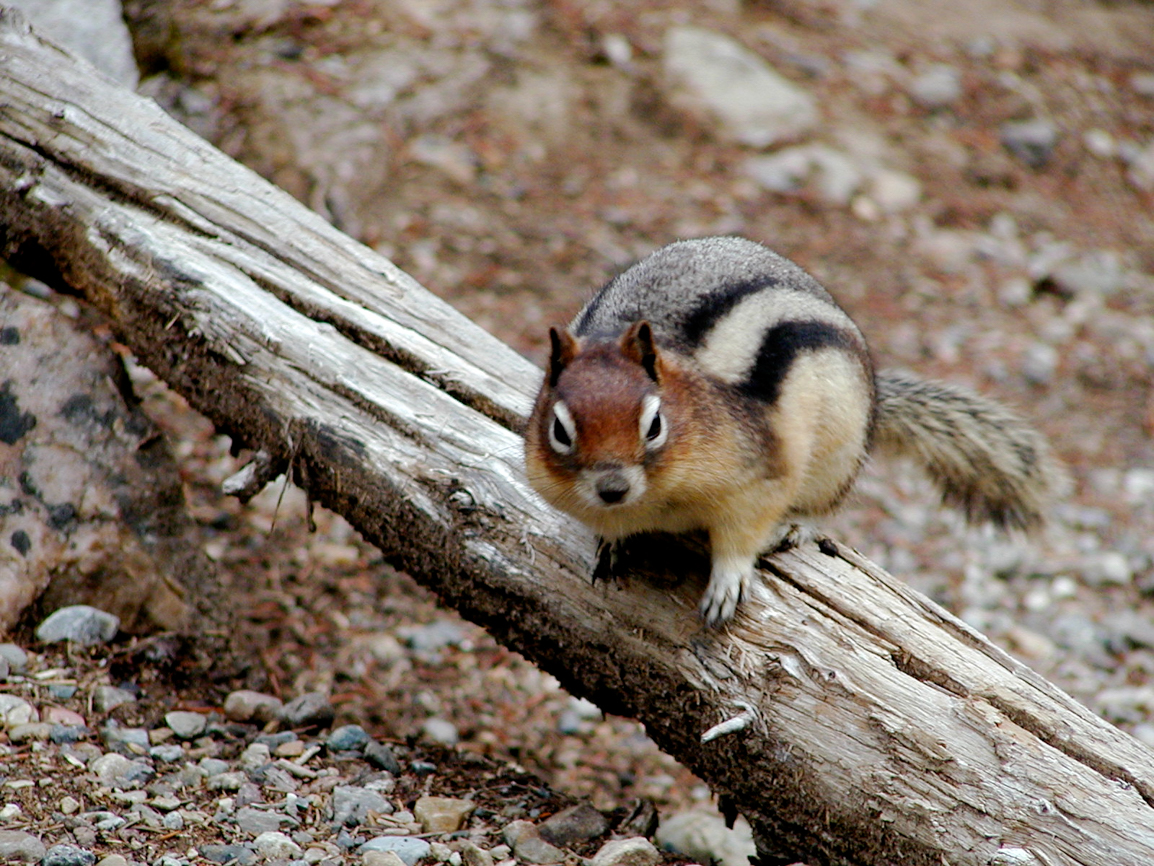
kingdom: Animalia
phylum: Chordata
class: Mammalia
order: Rodentia
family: Sciuridae
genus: Callospermophilus
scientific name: Callospermophilus lateralis
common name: Golden-mantled ground squirrel
